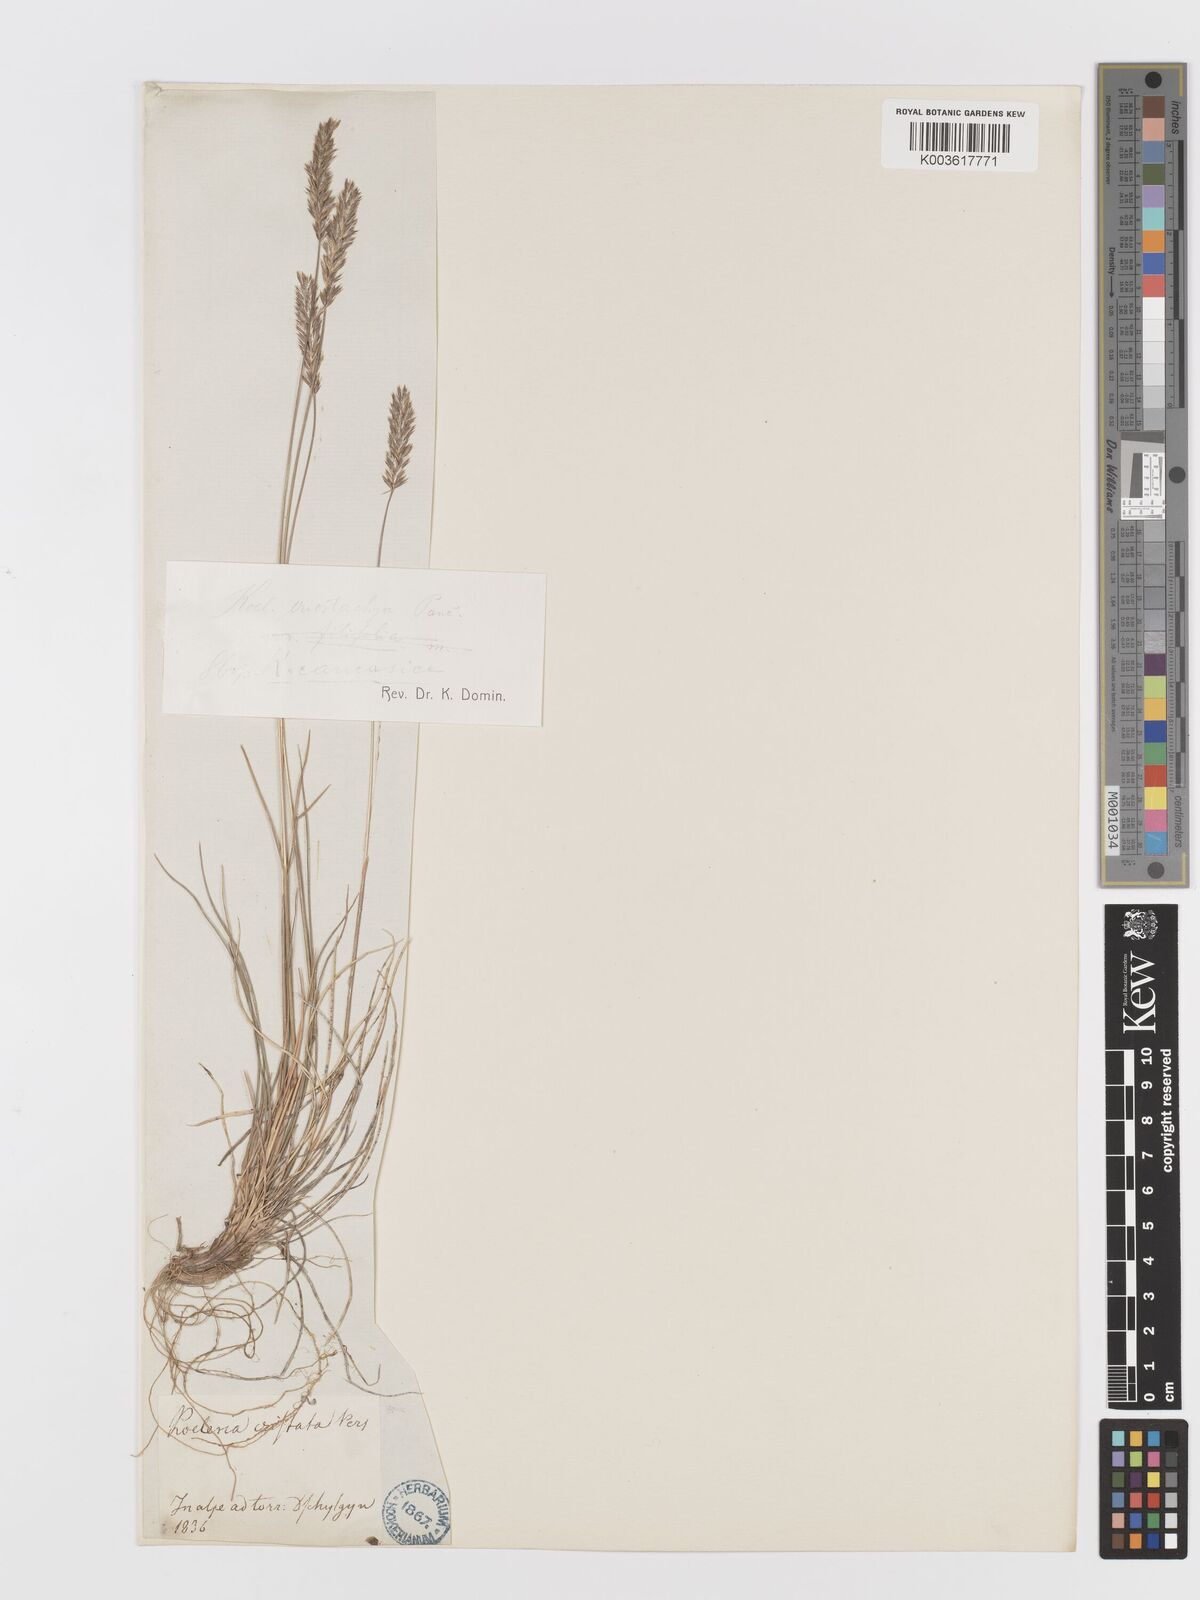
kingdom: Plantae
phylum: Tracheophyta
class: Liliopsida
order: Poales
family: Poaceae
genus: Koeleria
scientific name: Koeleria eriostachya
